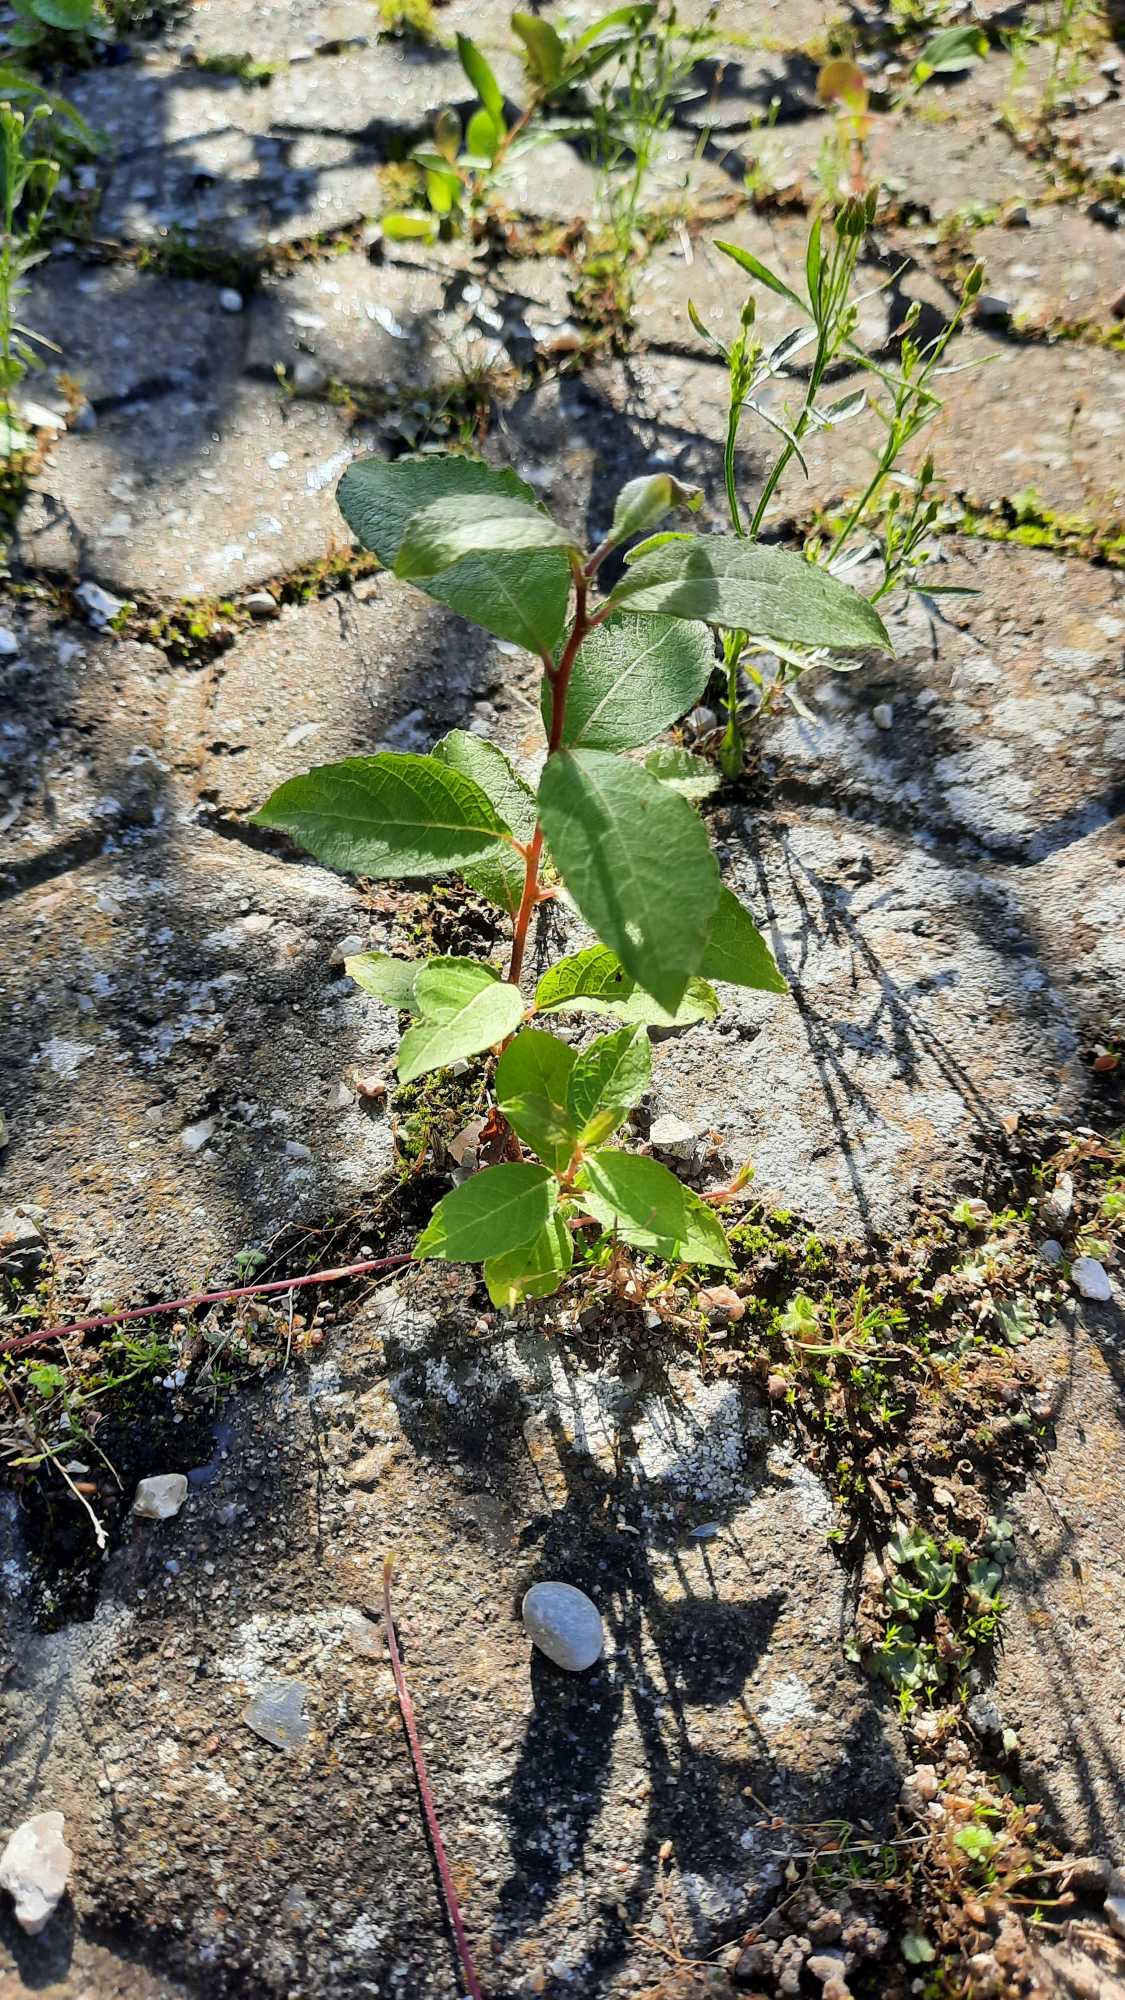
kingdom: Plantae
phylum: Tracheophyta
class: Magnoliopsida
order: Malpighiales
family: Salicaceae
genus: Salix
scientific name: Salix caprea
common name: Selje-pil
